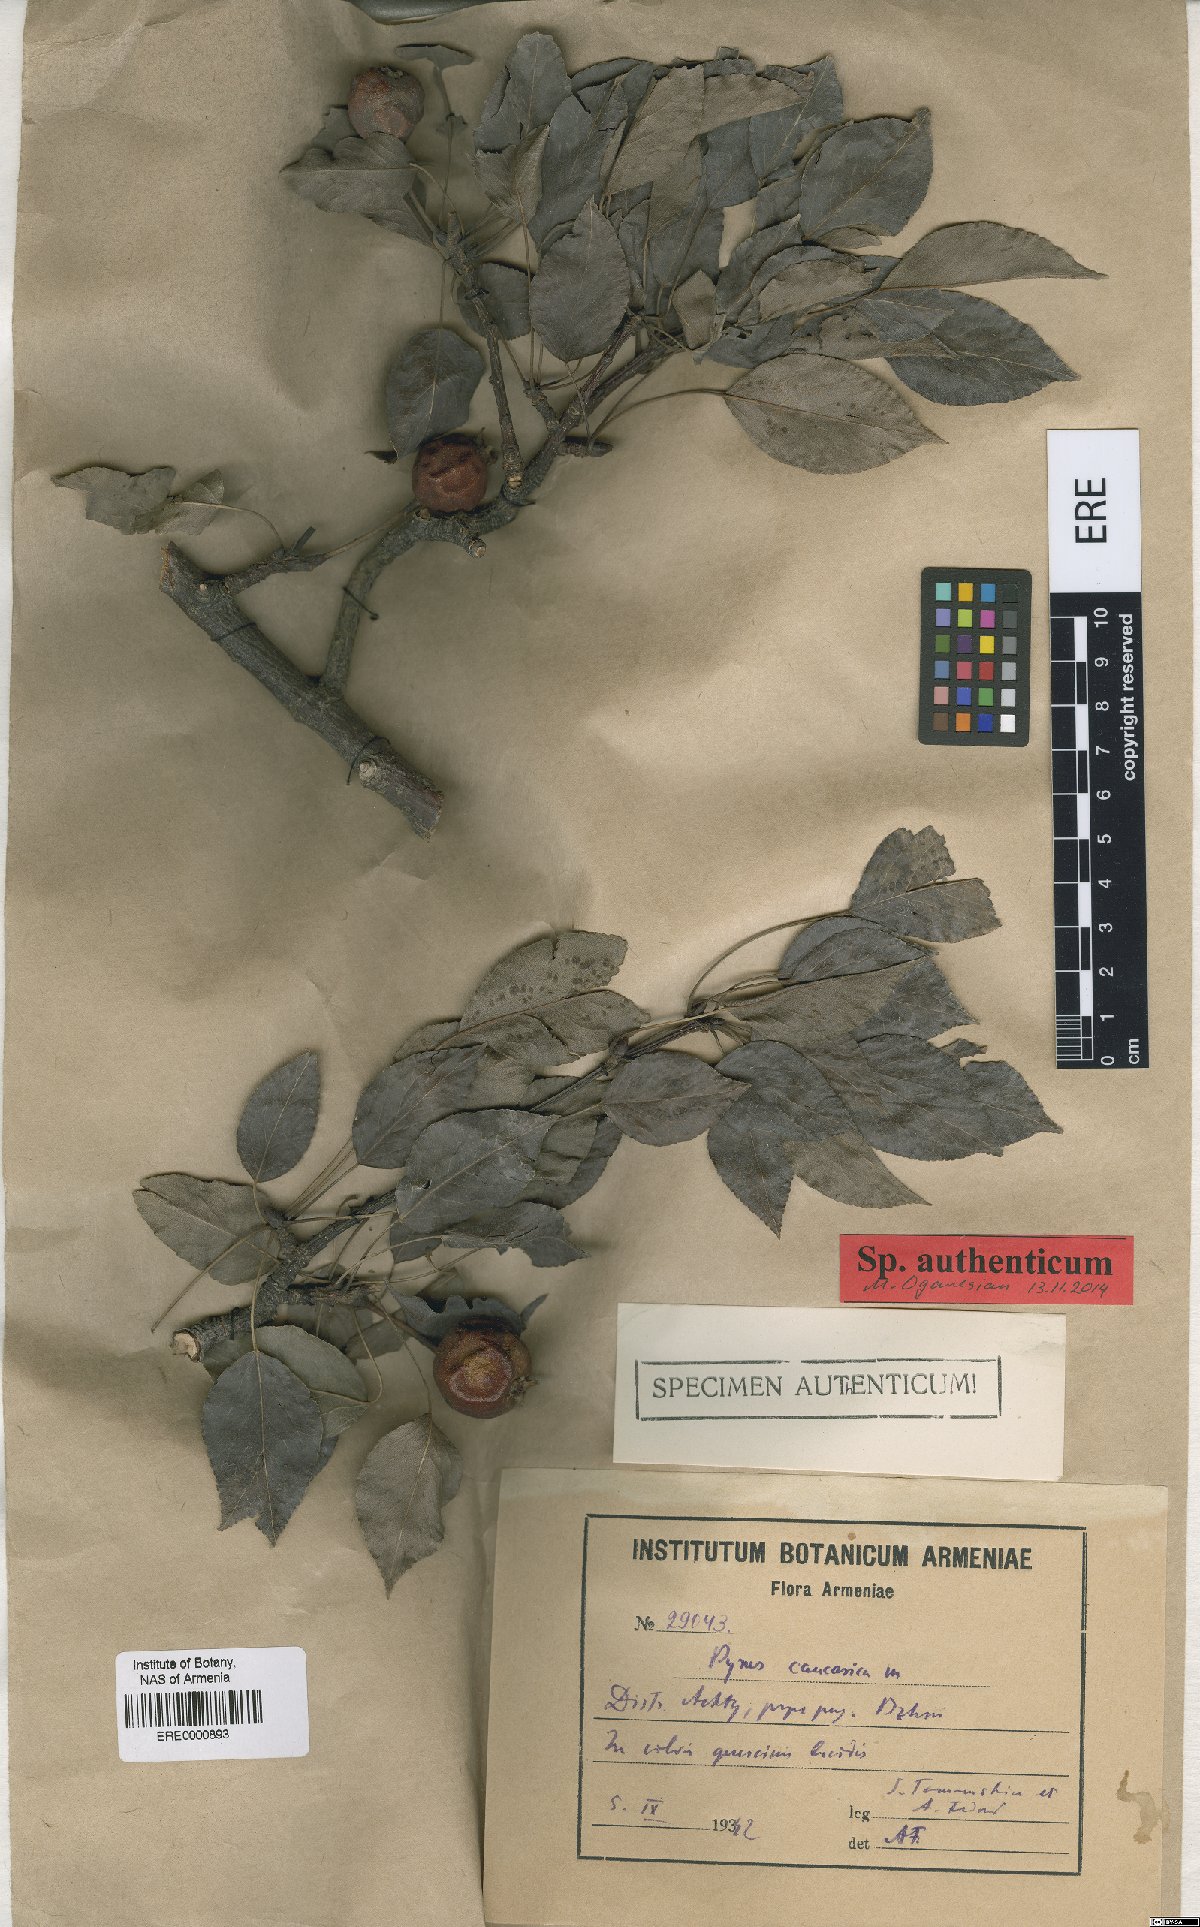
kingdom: Plantae
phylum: Tracheophyta
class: Magnoliopsida
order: Rosales
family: Rosaceae
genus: Pyrus
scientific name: Pyrus communis
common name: Pear
